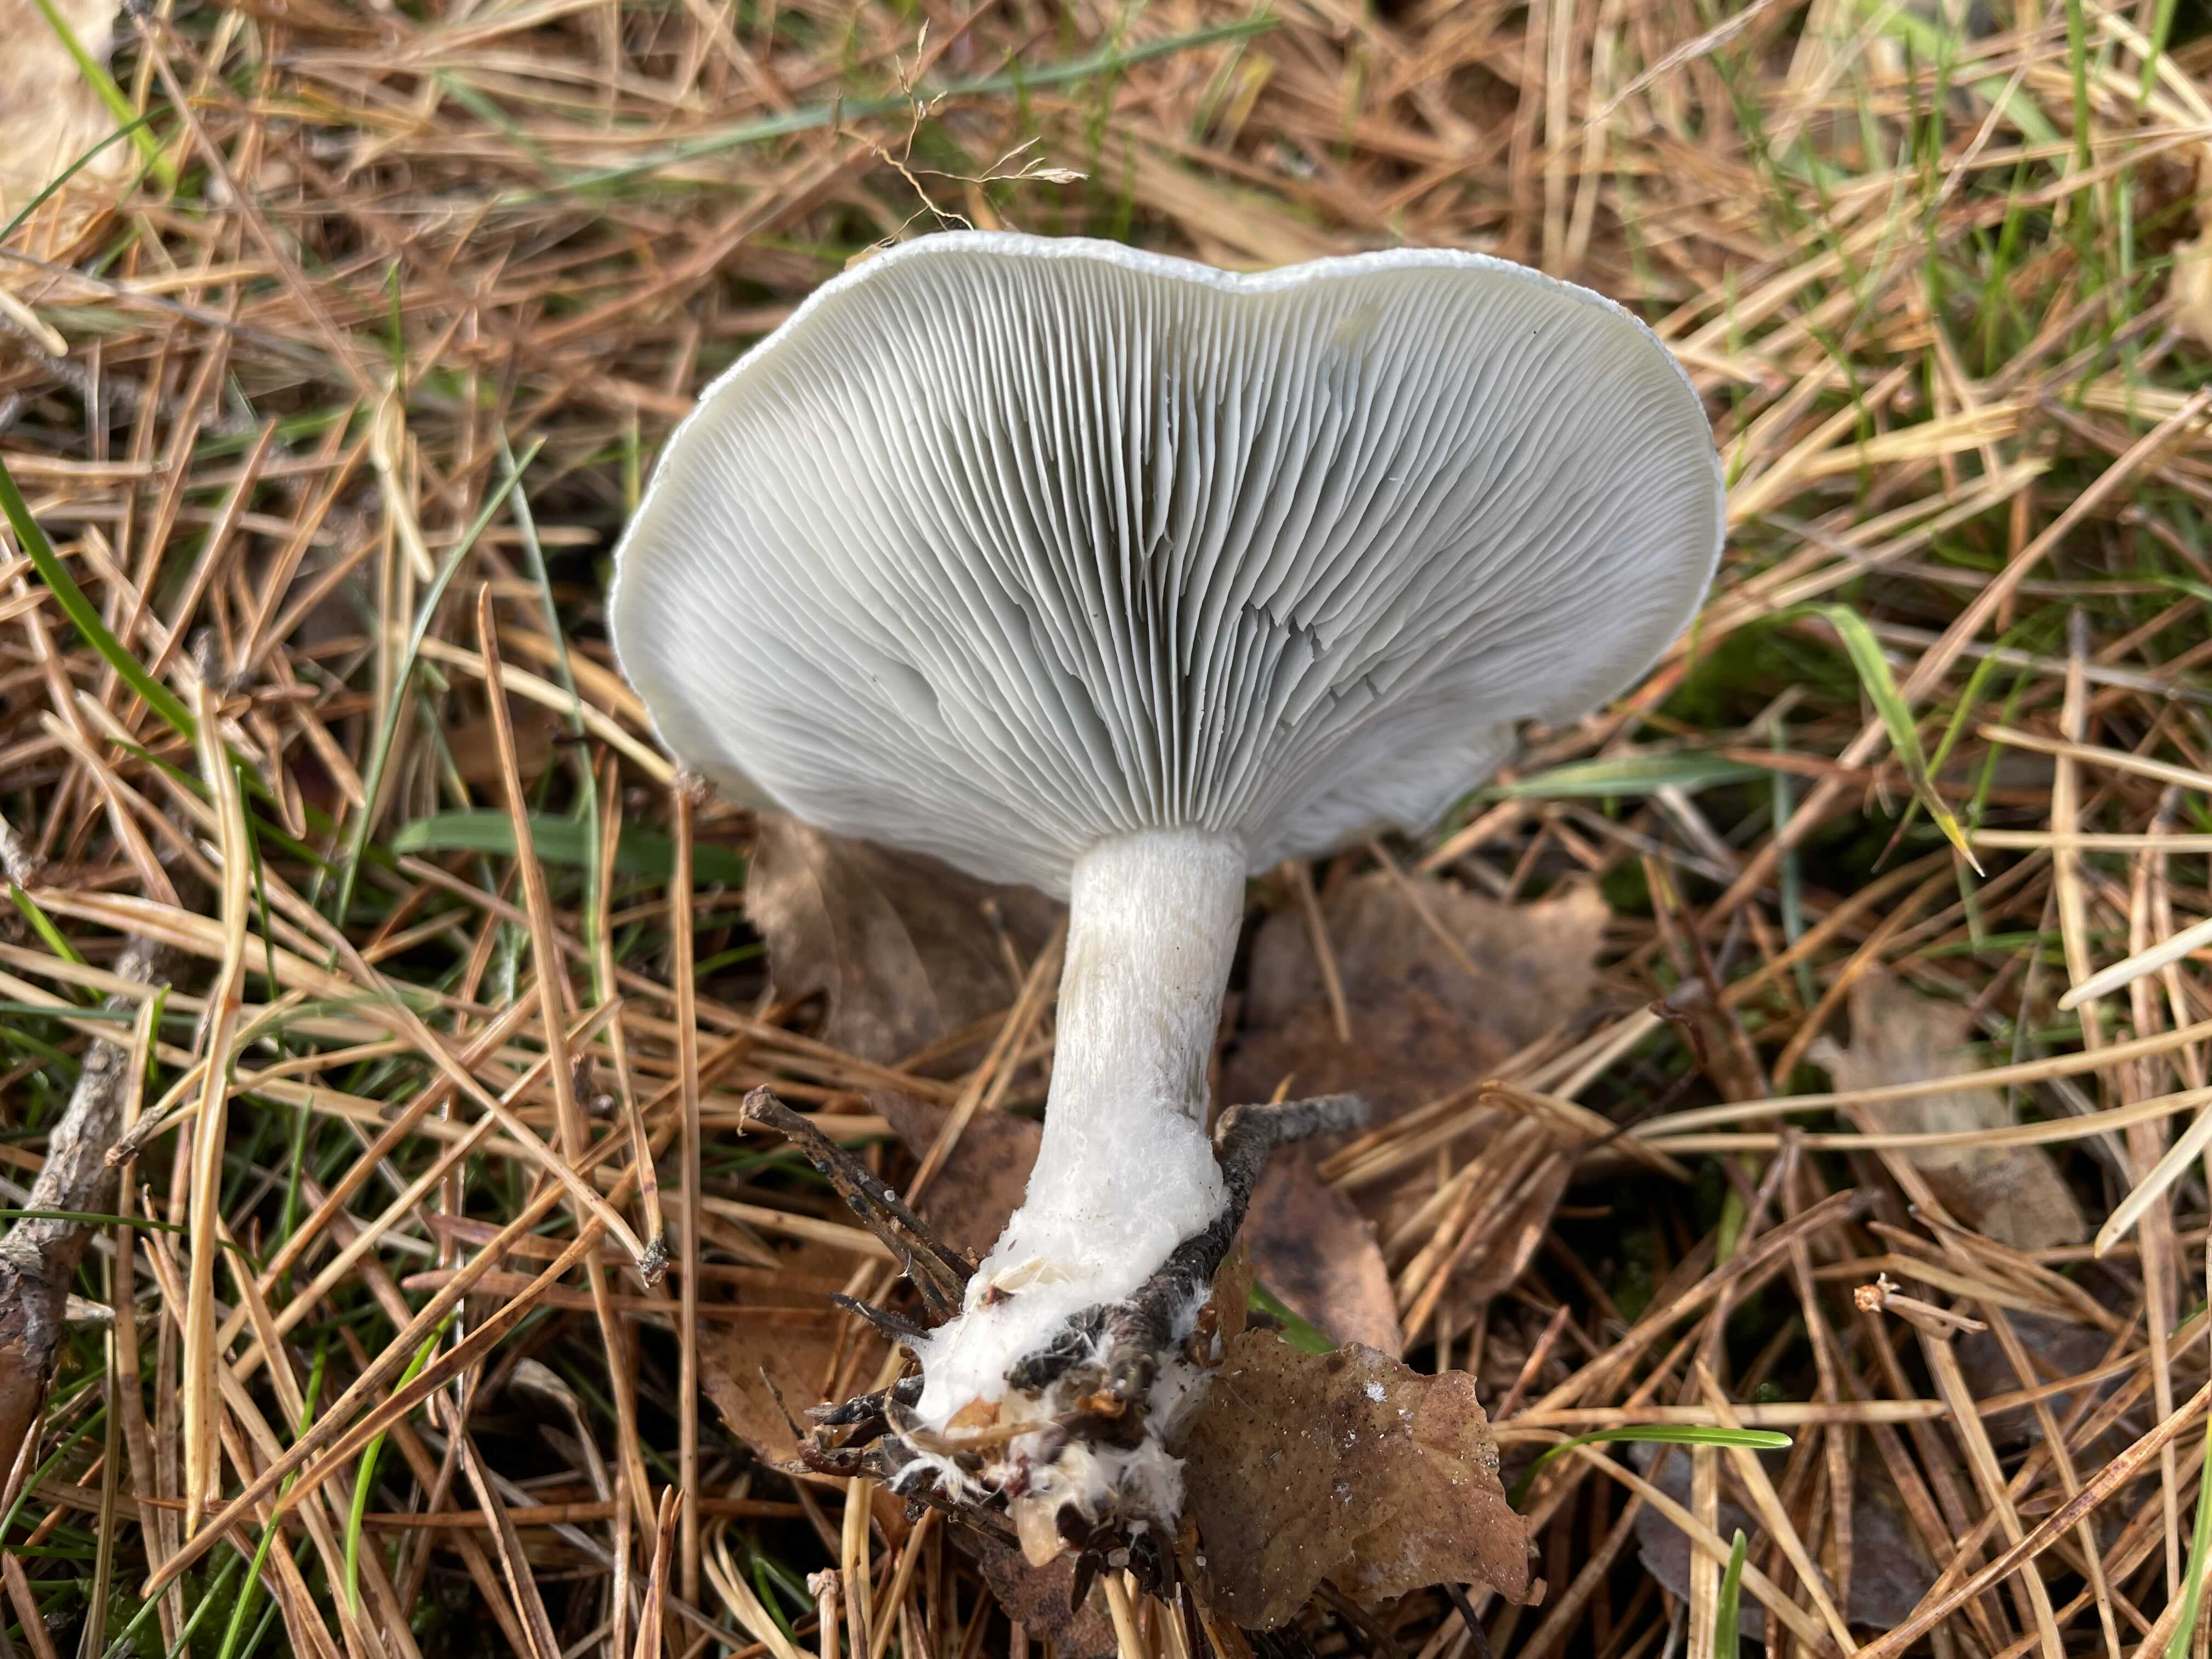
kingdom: Fungi
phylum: Basidiomycota
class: Agaricomycetes
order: Agaricales
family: Tricholomataceae
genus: Clitocybe
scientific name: Clitocybe odora
